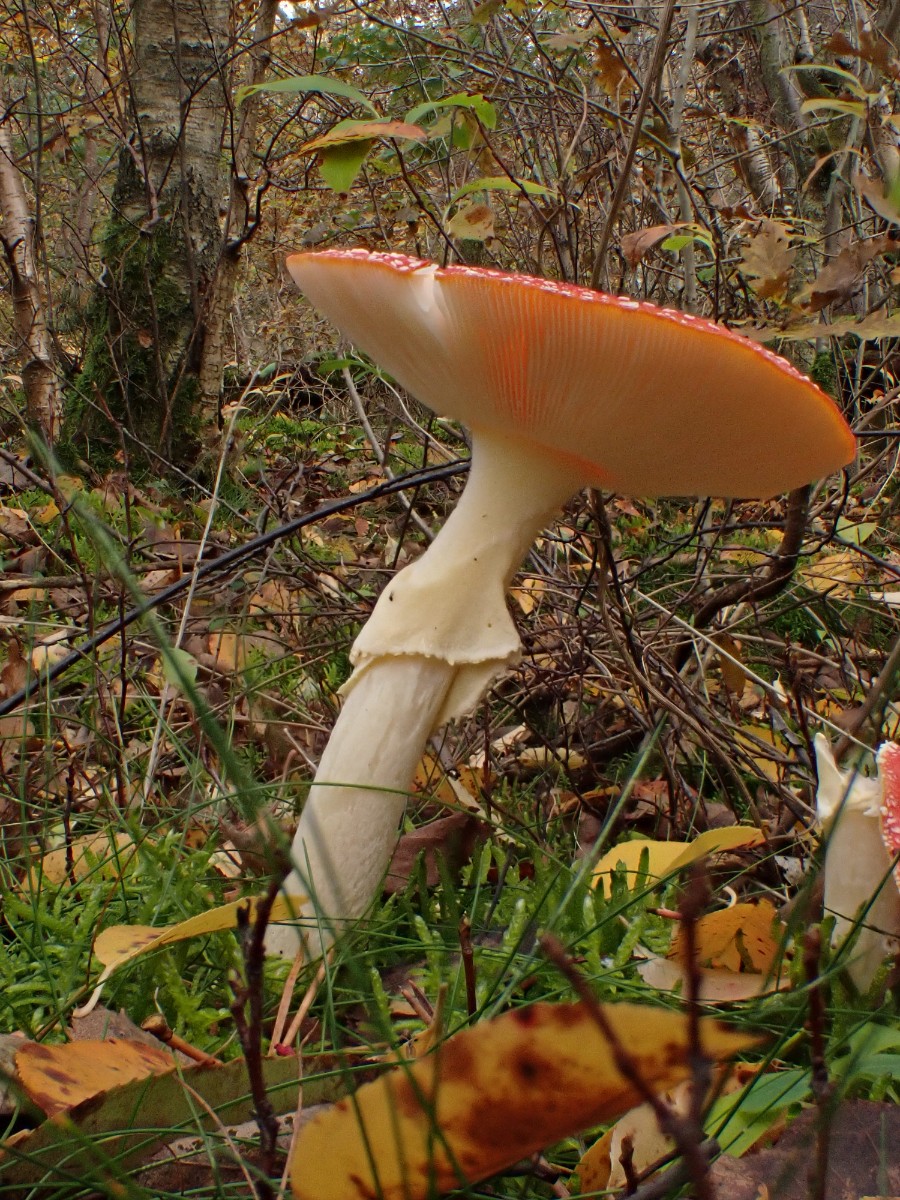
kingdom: Fungi
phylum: Basidiomycota
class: Agaricomycetes
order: Agaricales
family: Amanitaceae
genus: Amanita
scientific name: Amanita muscaria
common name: rød fluesvamp
